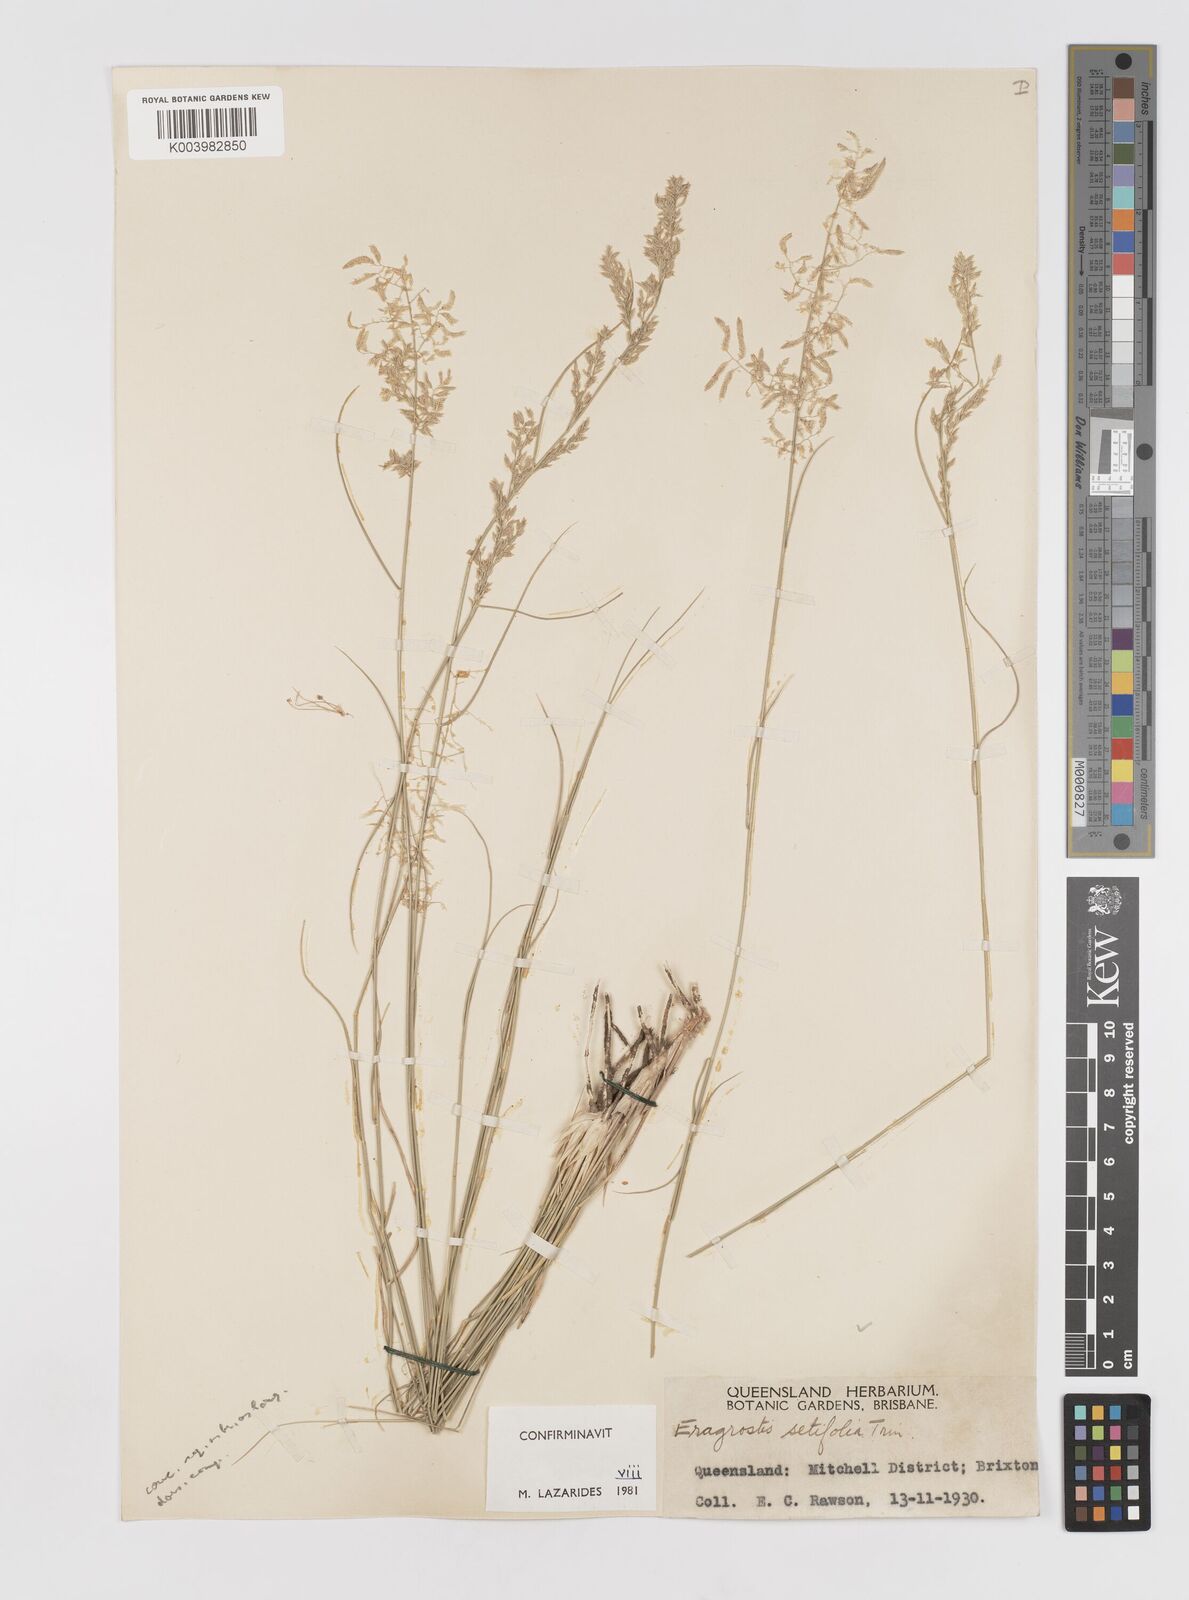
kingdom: Plantae
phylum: Tracheophyta
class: Liliopsida
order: Poales
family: Poaceae
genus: Eragrostis
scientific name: Eragrostis setifolia
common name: Bristleleaf lovegrass
